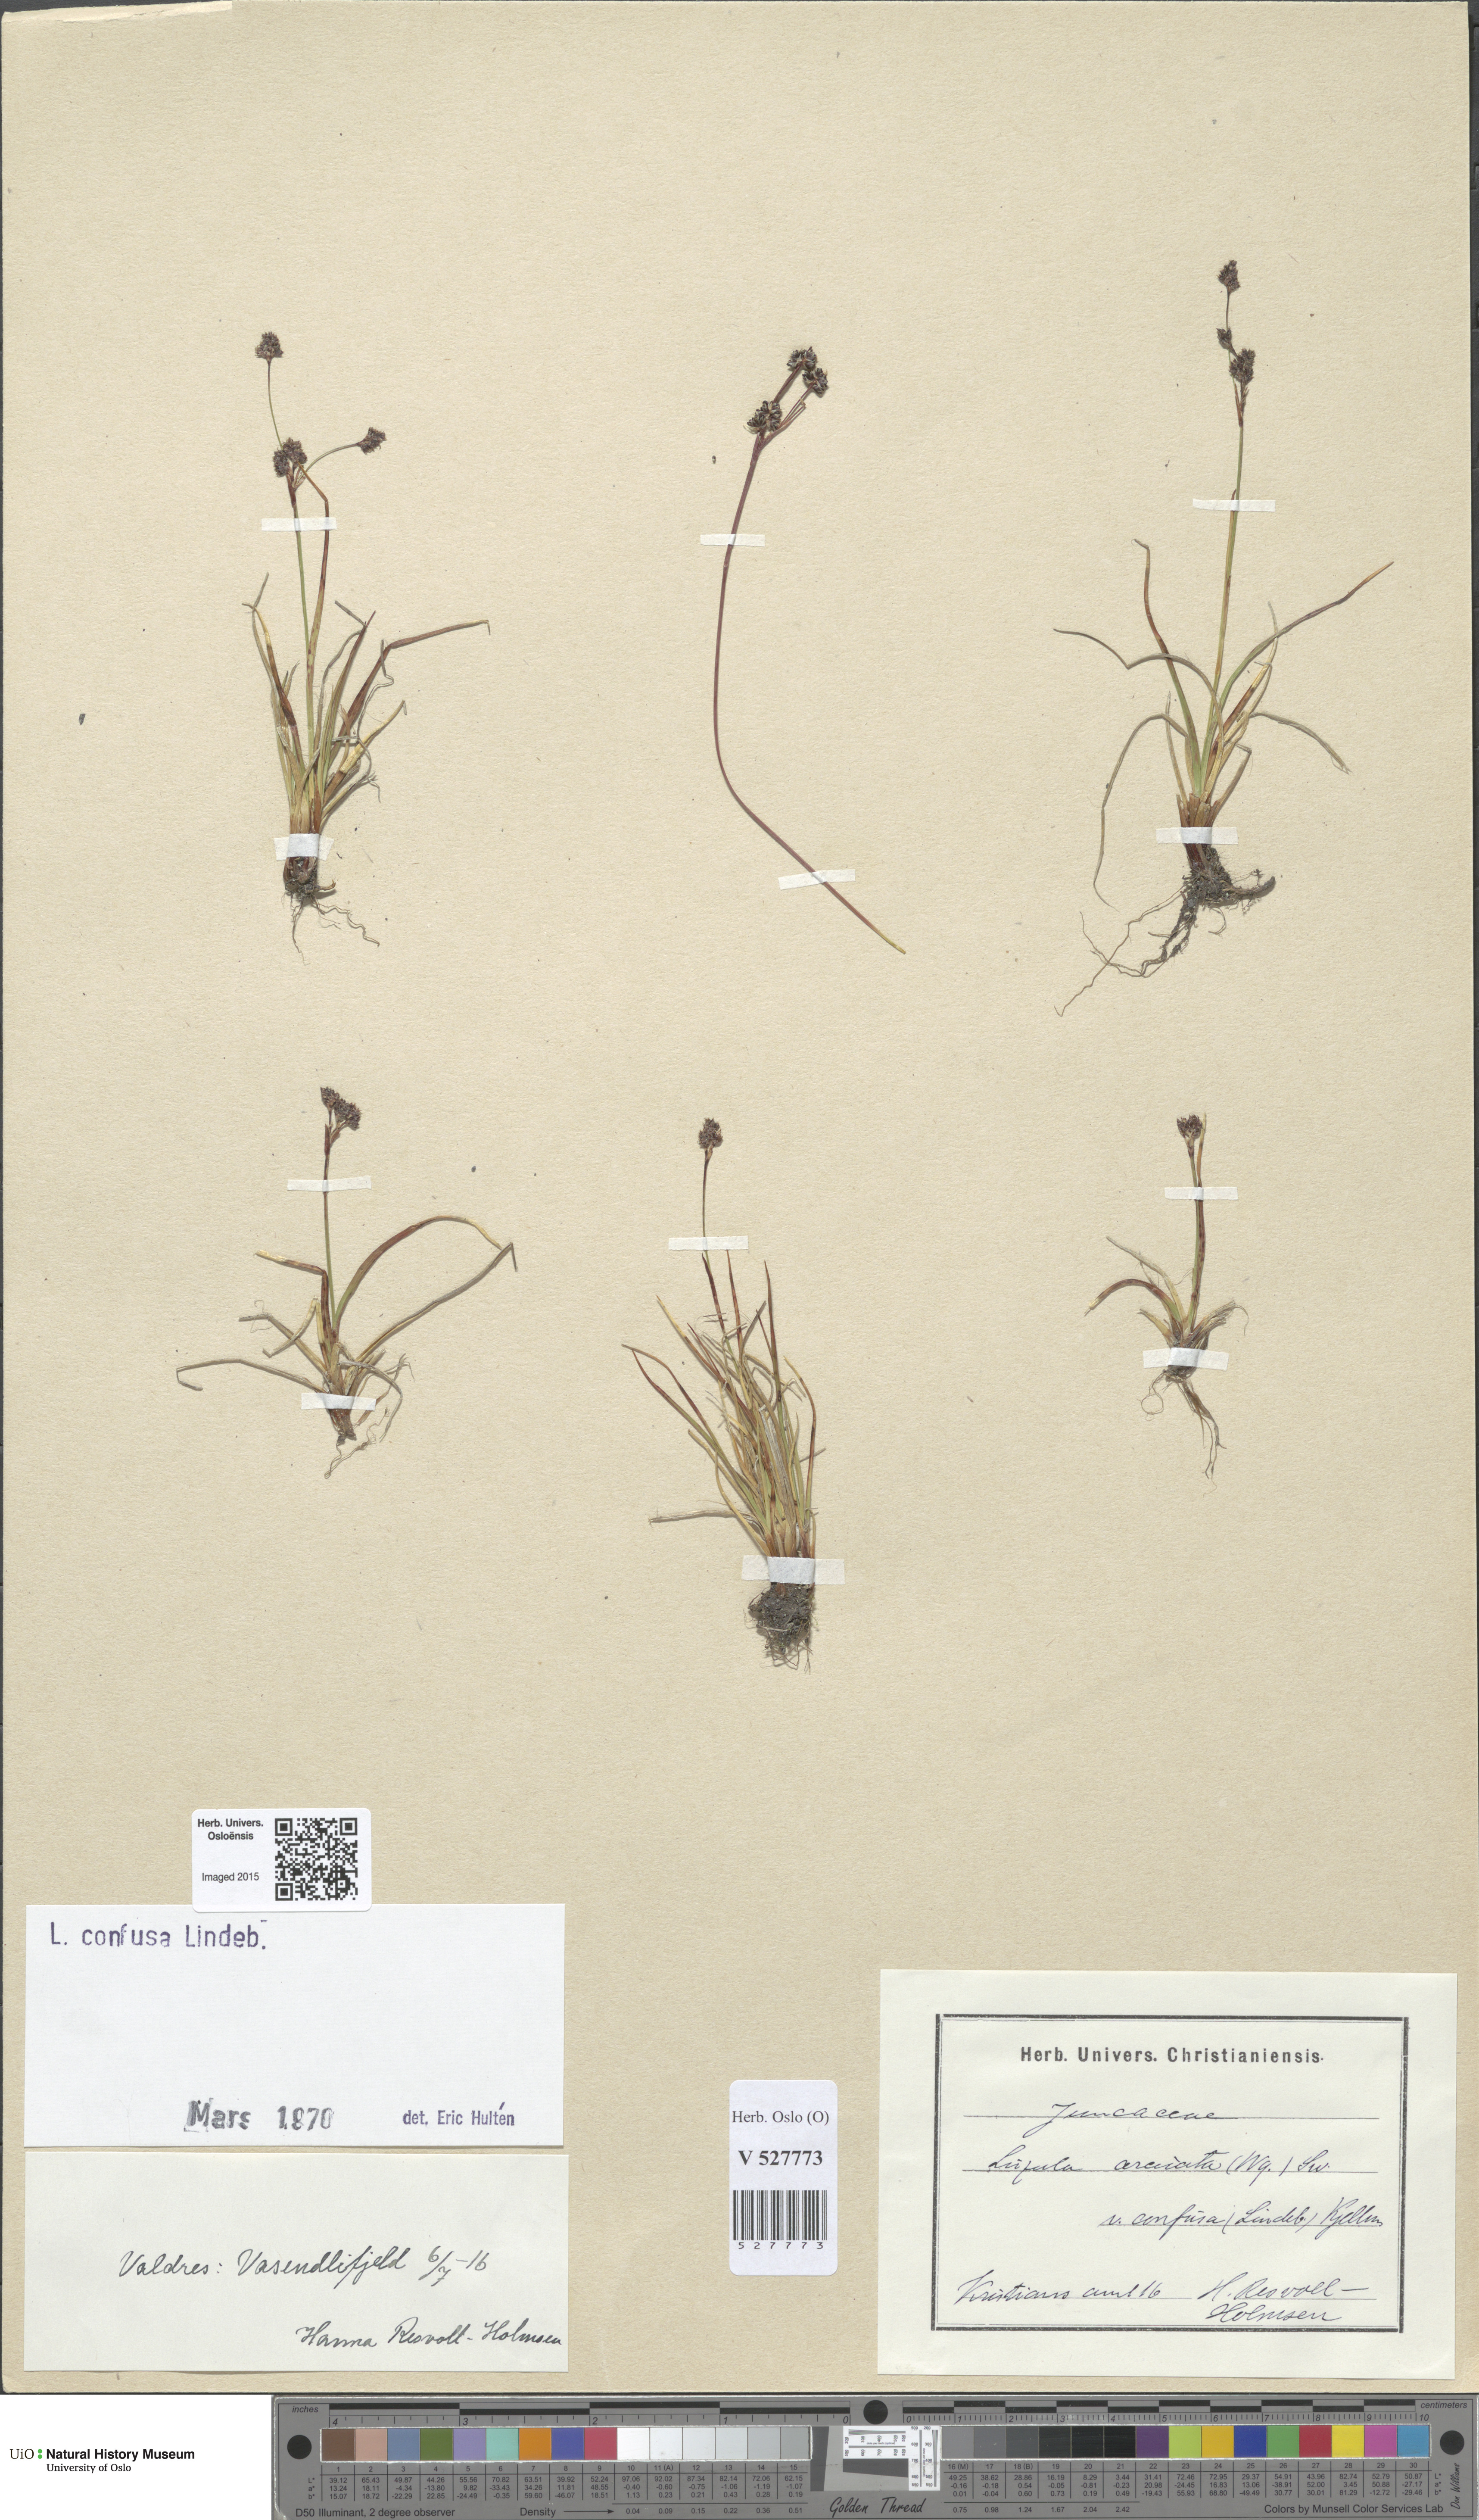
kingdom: Plantae
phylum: Tracheophyta
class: Liliopsida
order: Poales
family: Juncaceae
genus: Luzula
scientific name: Luzula confusa
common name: Northern wood rush
